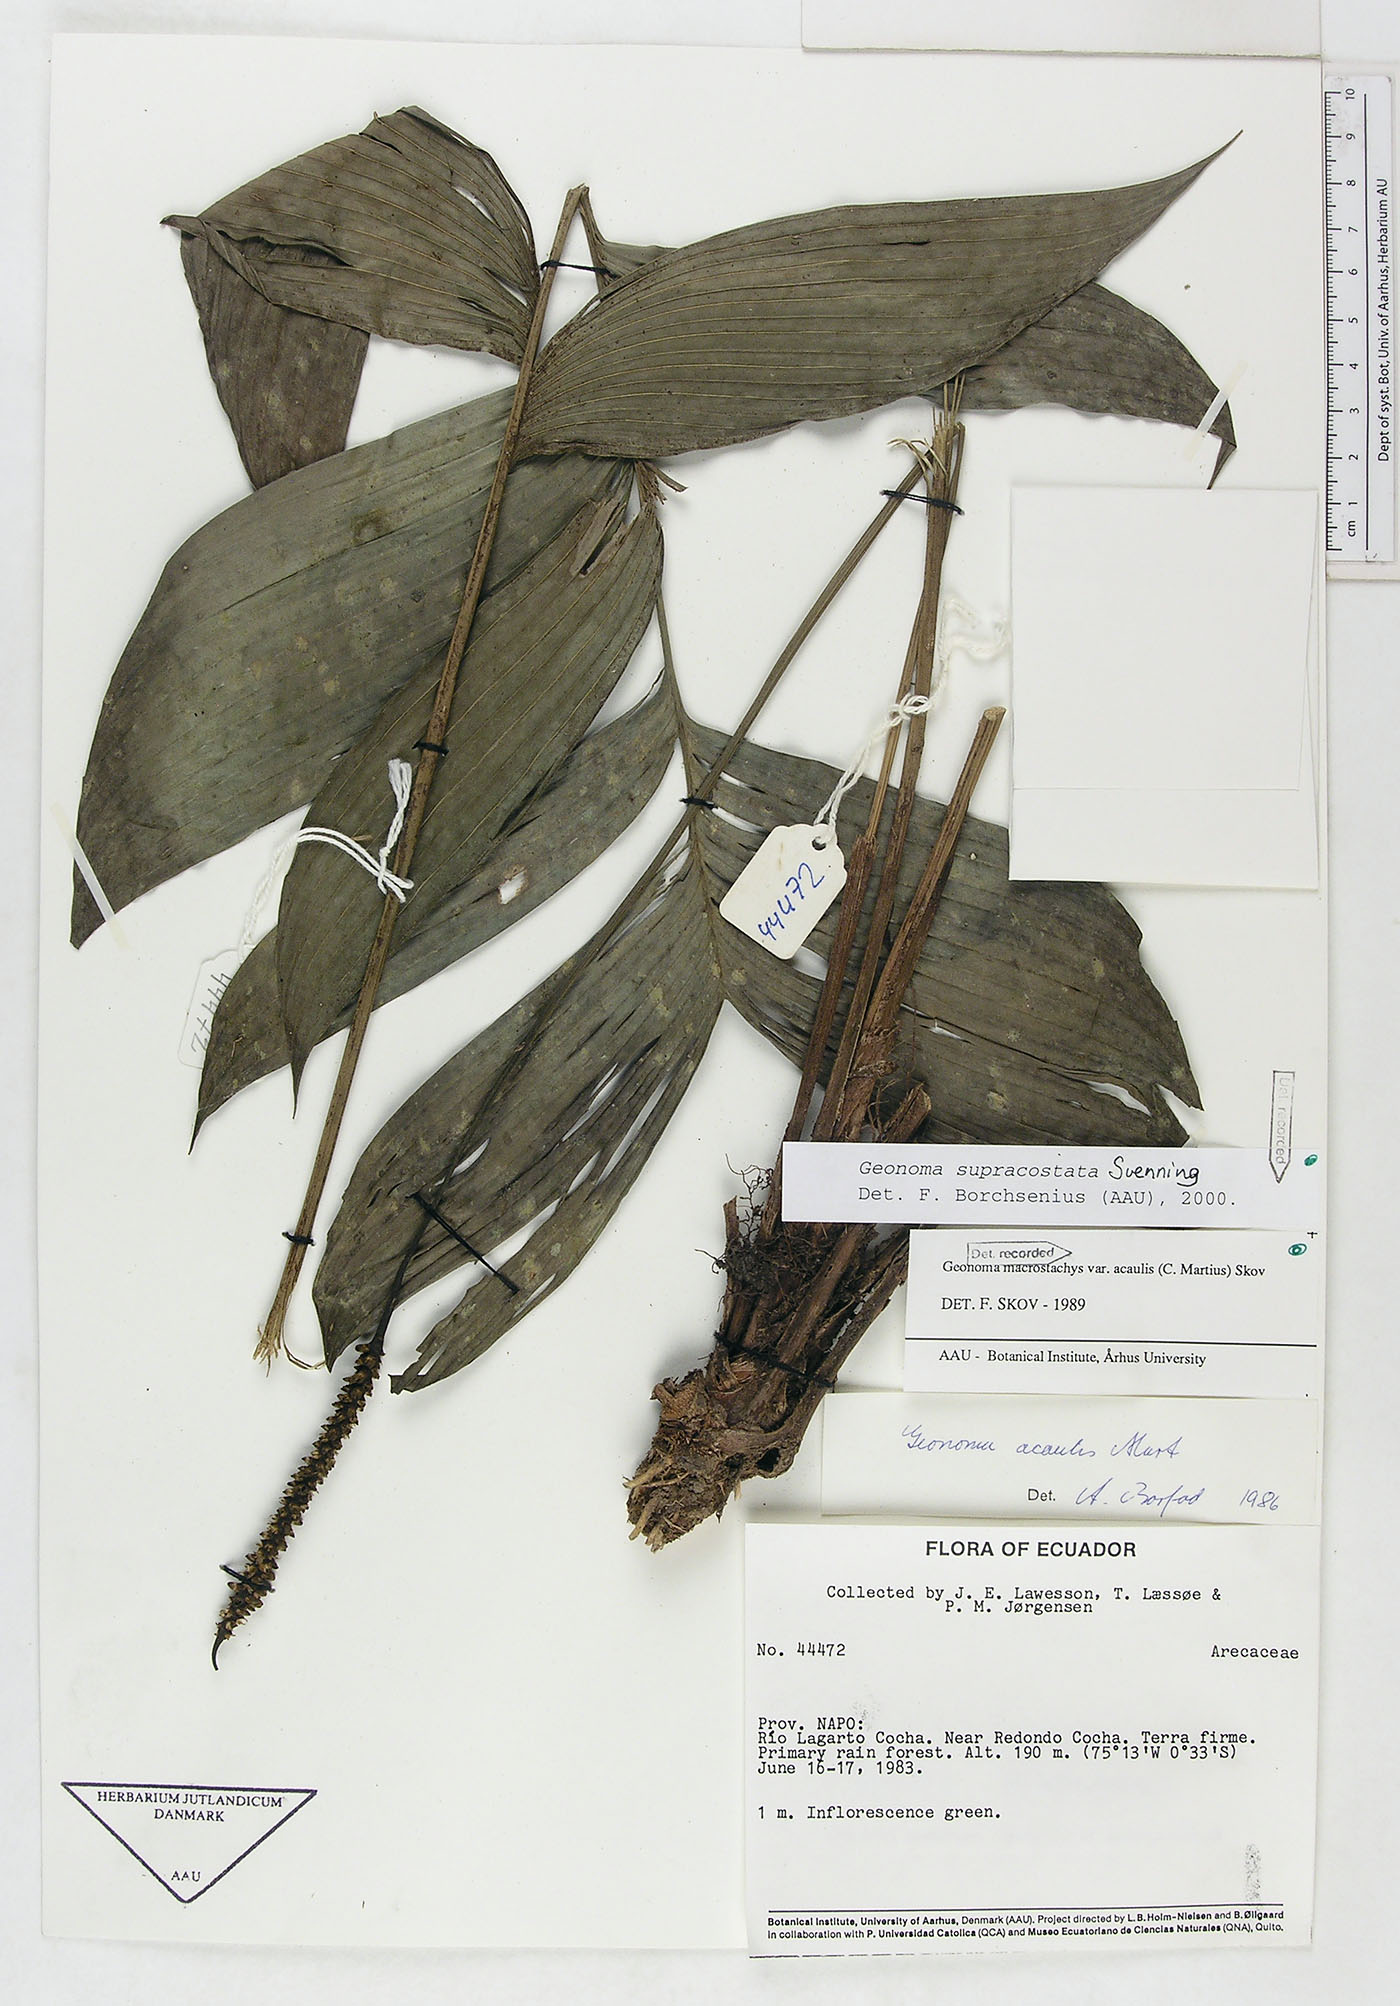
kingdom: Plantae
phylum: Tracheophyta
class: Liliopsida
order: Arecales
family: Arecaceae
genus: Geonoma
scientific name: Geonoma macrostachys
